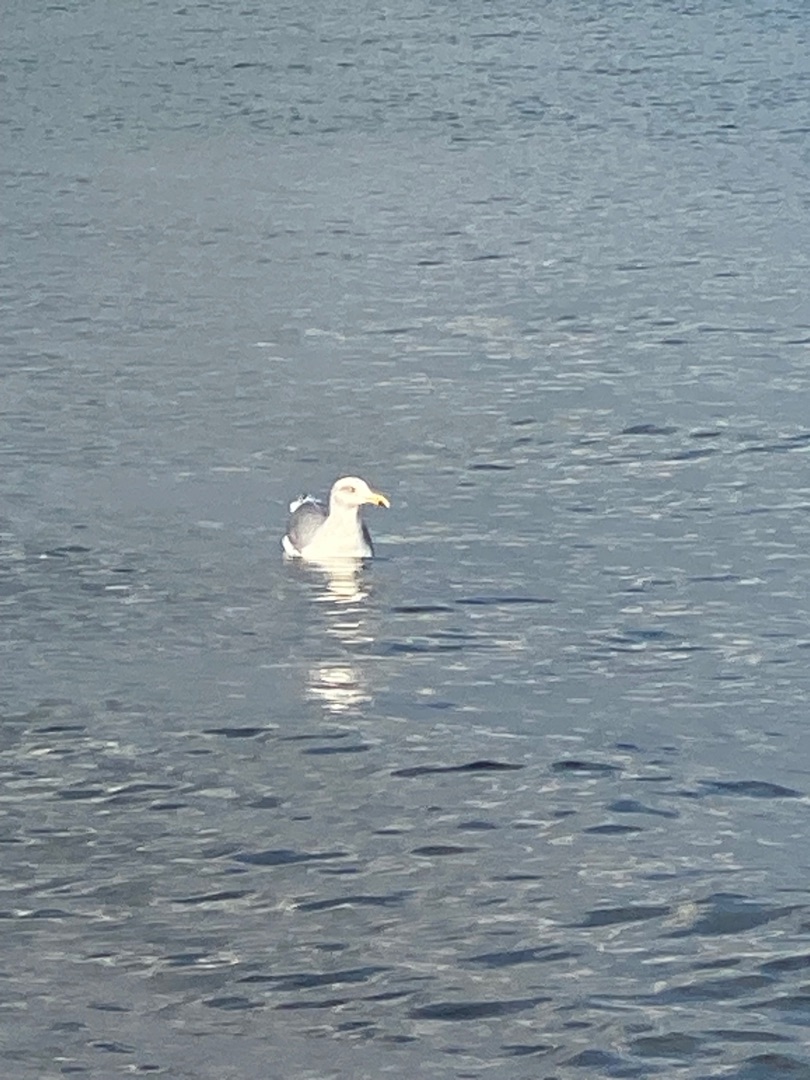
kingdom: Animalia
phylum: Chordata
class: Aves
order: Charadriiformes
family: Laridae
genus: Larus
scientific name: Larus argentatus
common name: Sølvmåge
